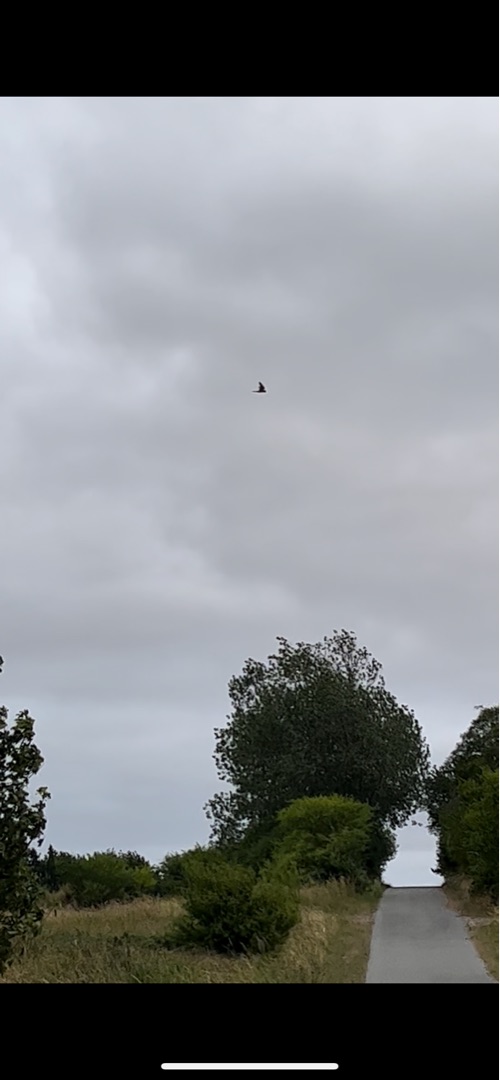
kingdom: Animalia
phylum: Chordata
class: Aves
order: Falconiformes
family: Falconidae
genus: Falco
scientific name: Falco tinnunculus
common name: Tårnfalk
